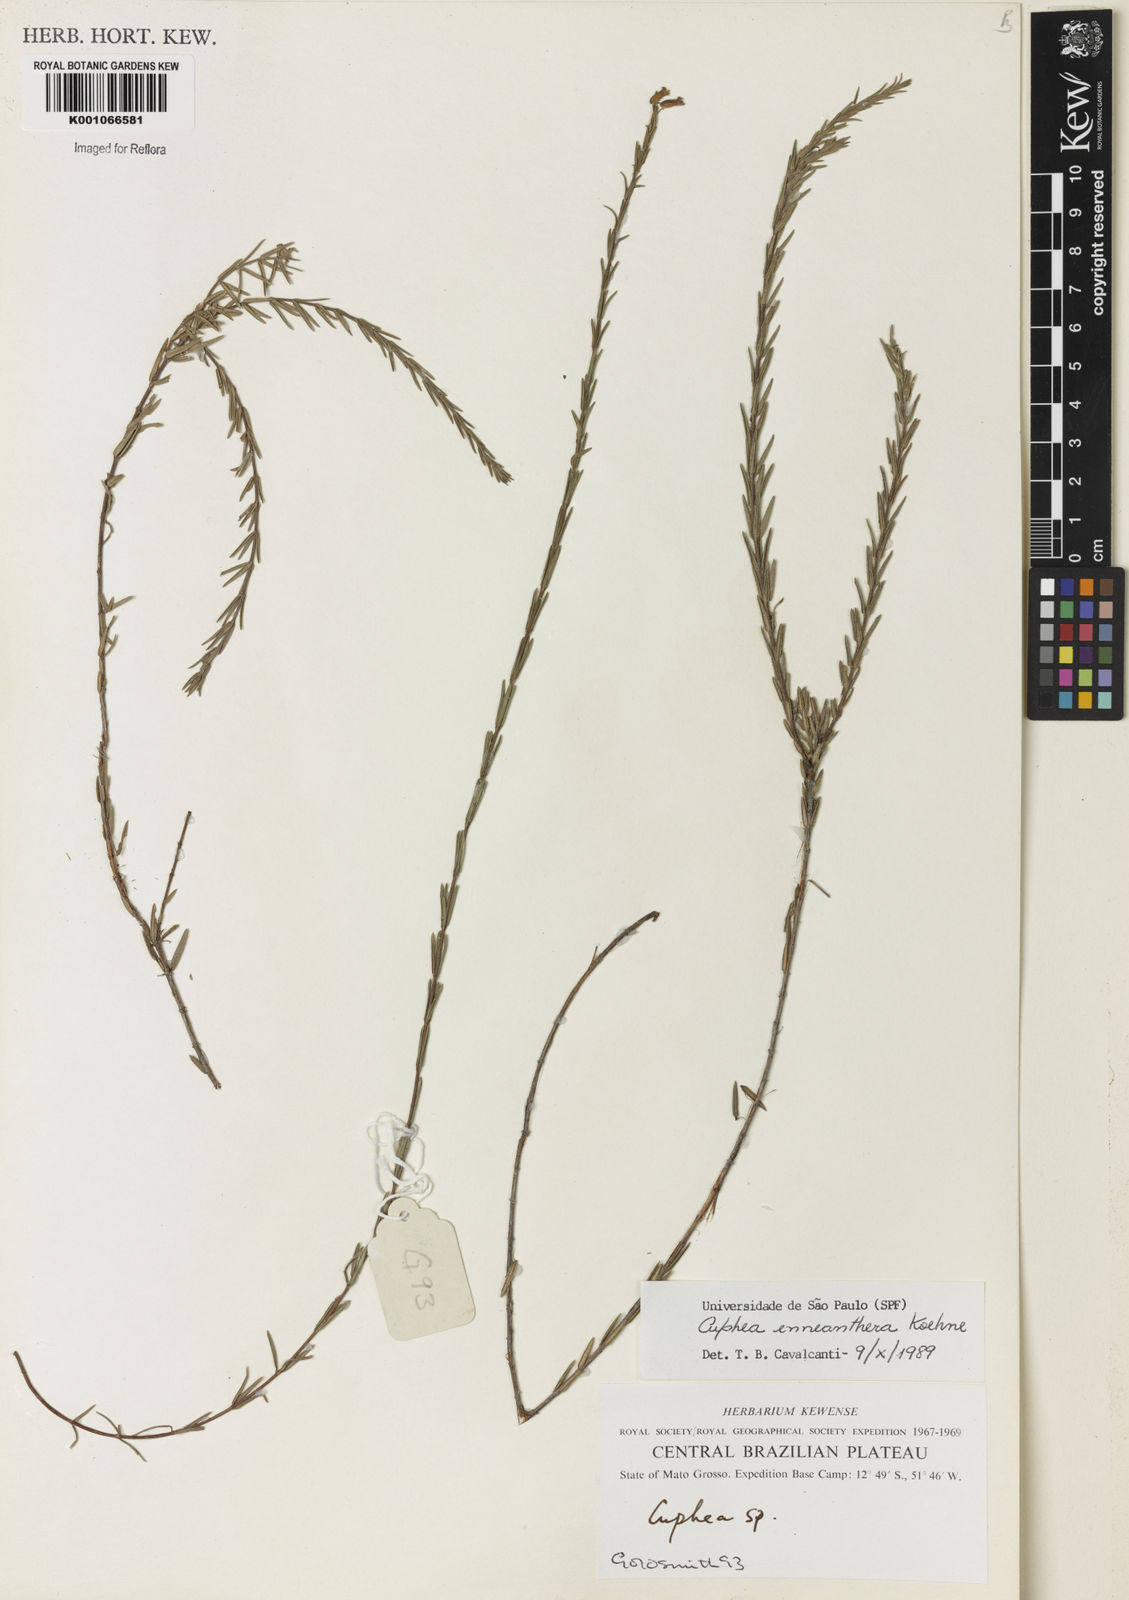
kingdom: Plantae
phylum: Tracheophyta
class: Magnoliopsida
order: Myrtales
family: Lythraceae
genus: Cuphea
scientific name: Cuphea retrorsicapilla
